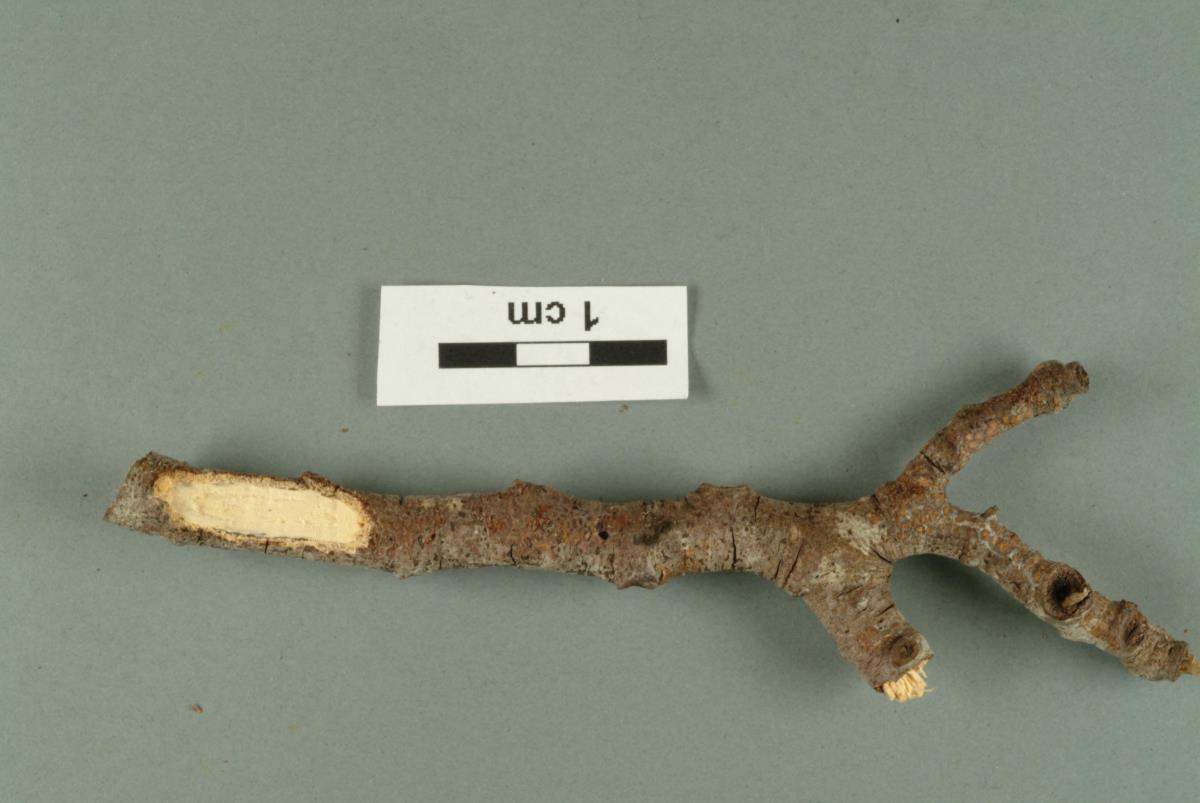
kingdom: Fungi
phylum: Basidiomycota
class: Agaricomycetes
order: Hymenochaetales
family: Schizoporaceae
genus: Xylodon
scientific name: Xylodon raduloides
